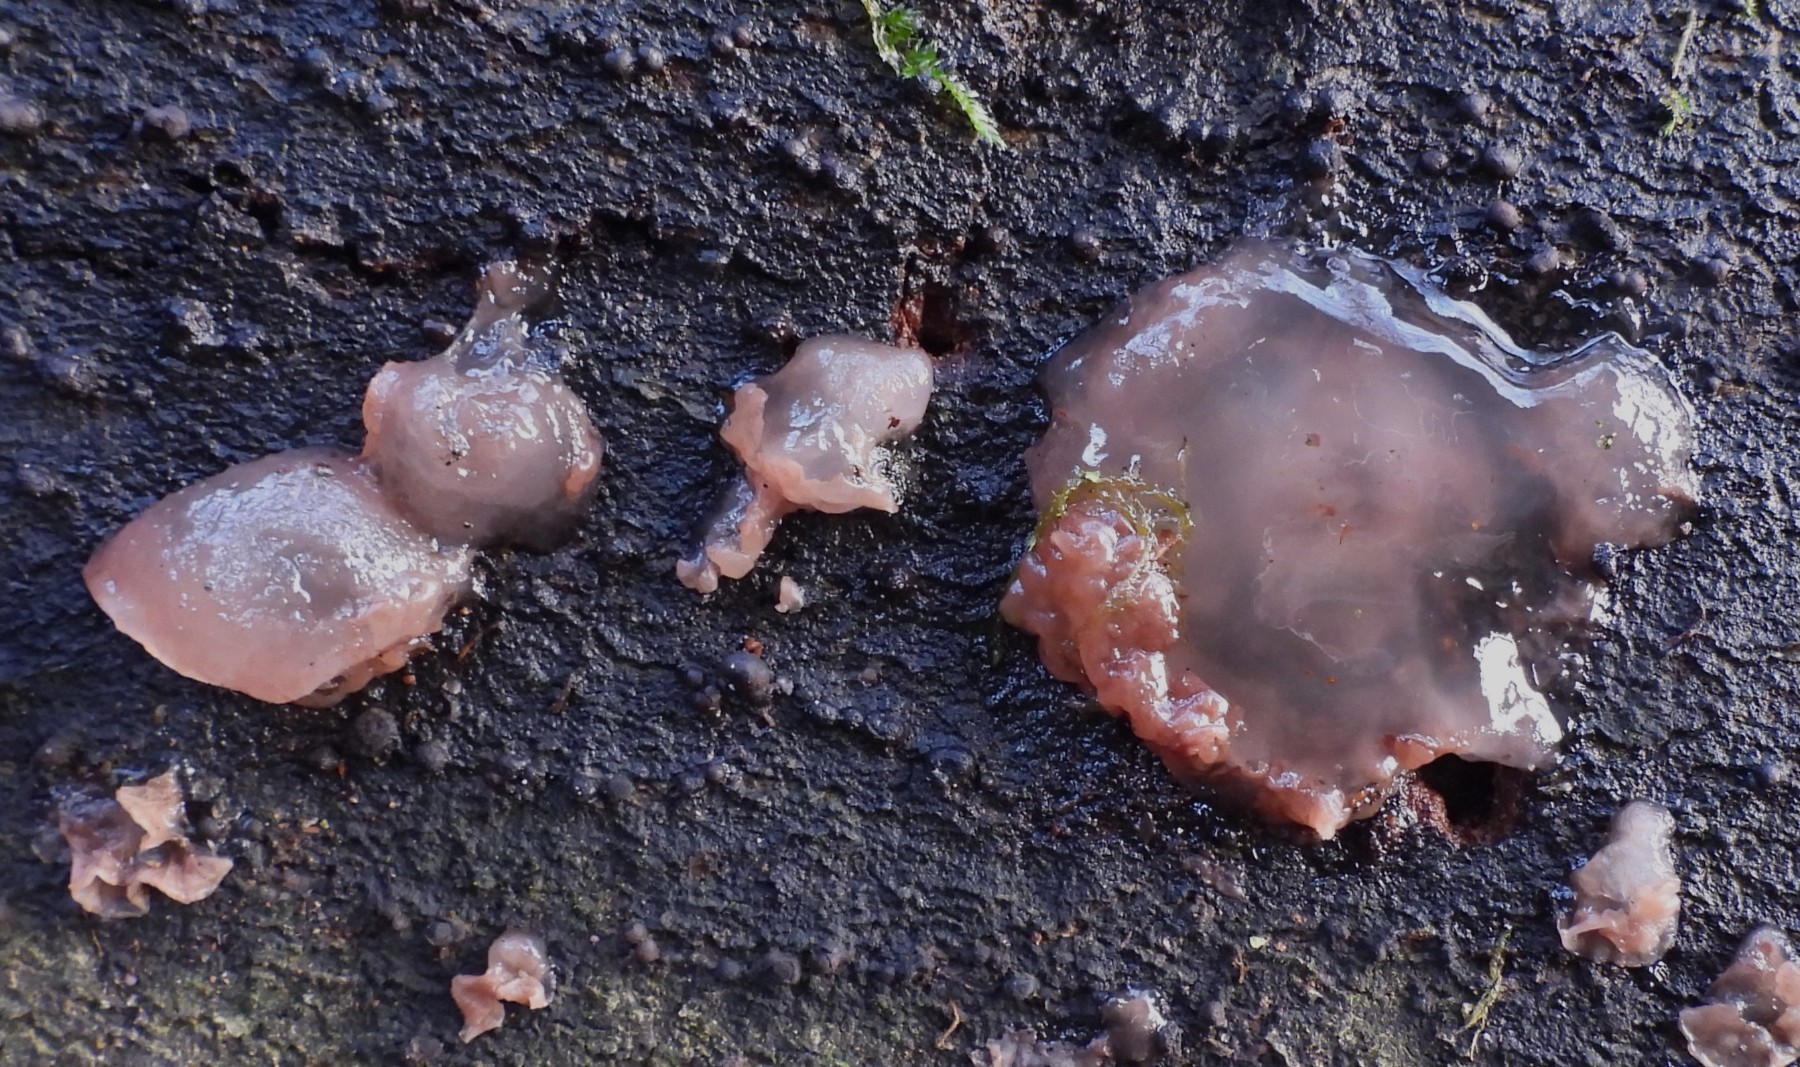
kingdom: Fungi
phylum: Ascomycota
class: Leotiomycetes
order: Helotiales
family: Helotiaceae
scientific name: Helotiaceae
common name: stilkskivefamilien
